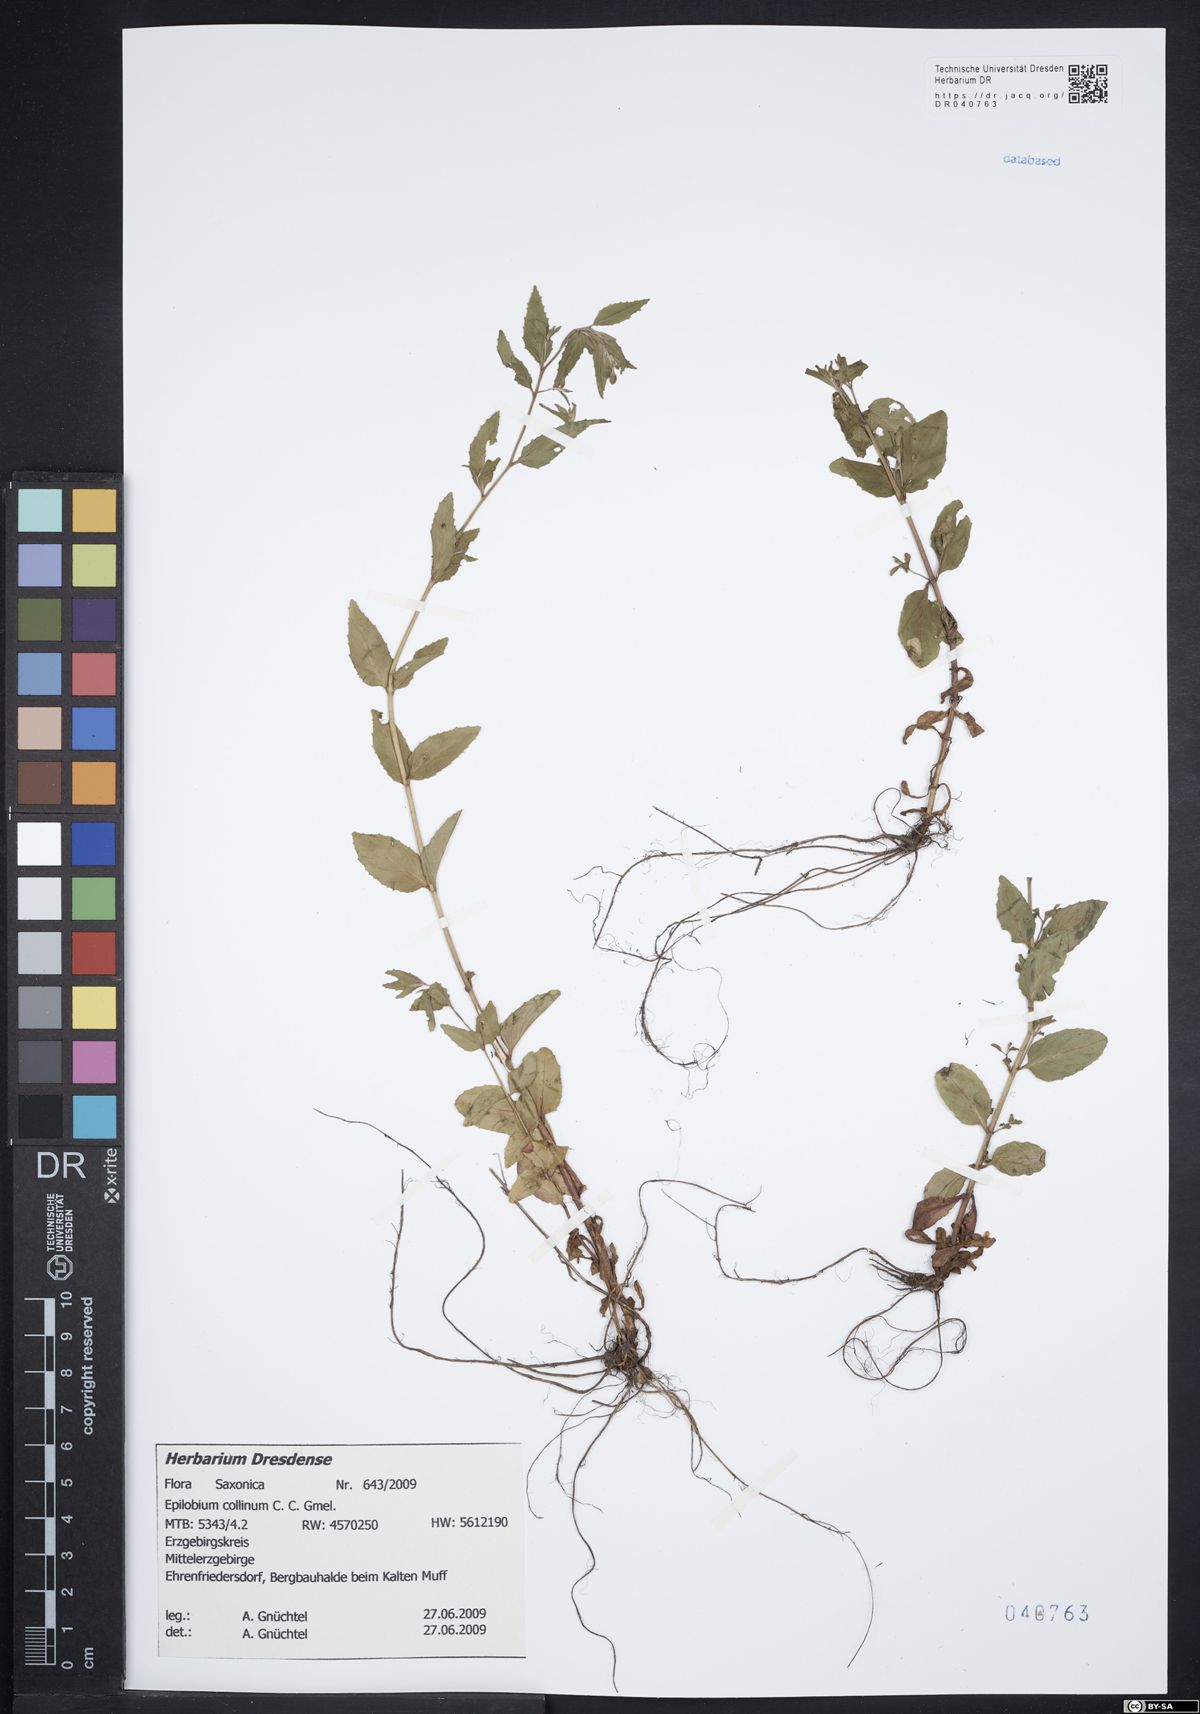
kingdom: Plantae
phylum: Tracheophyta
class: Magnoliopsida
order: Myrtales
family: Onagraceae
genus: Epilobium
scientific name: Epilobium collinum
